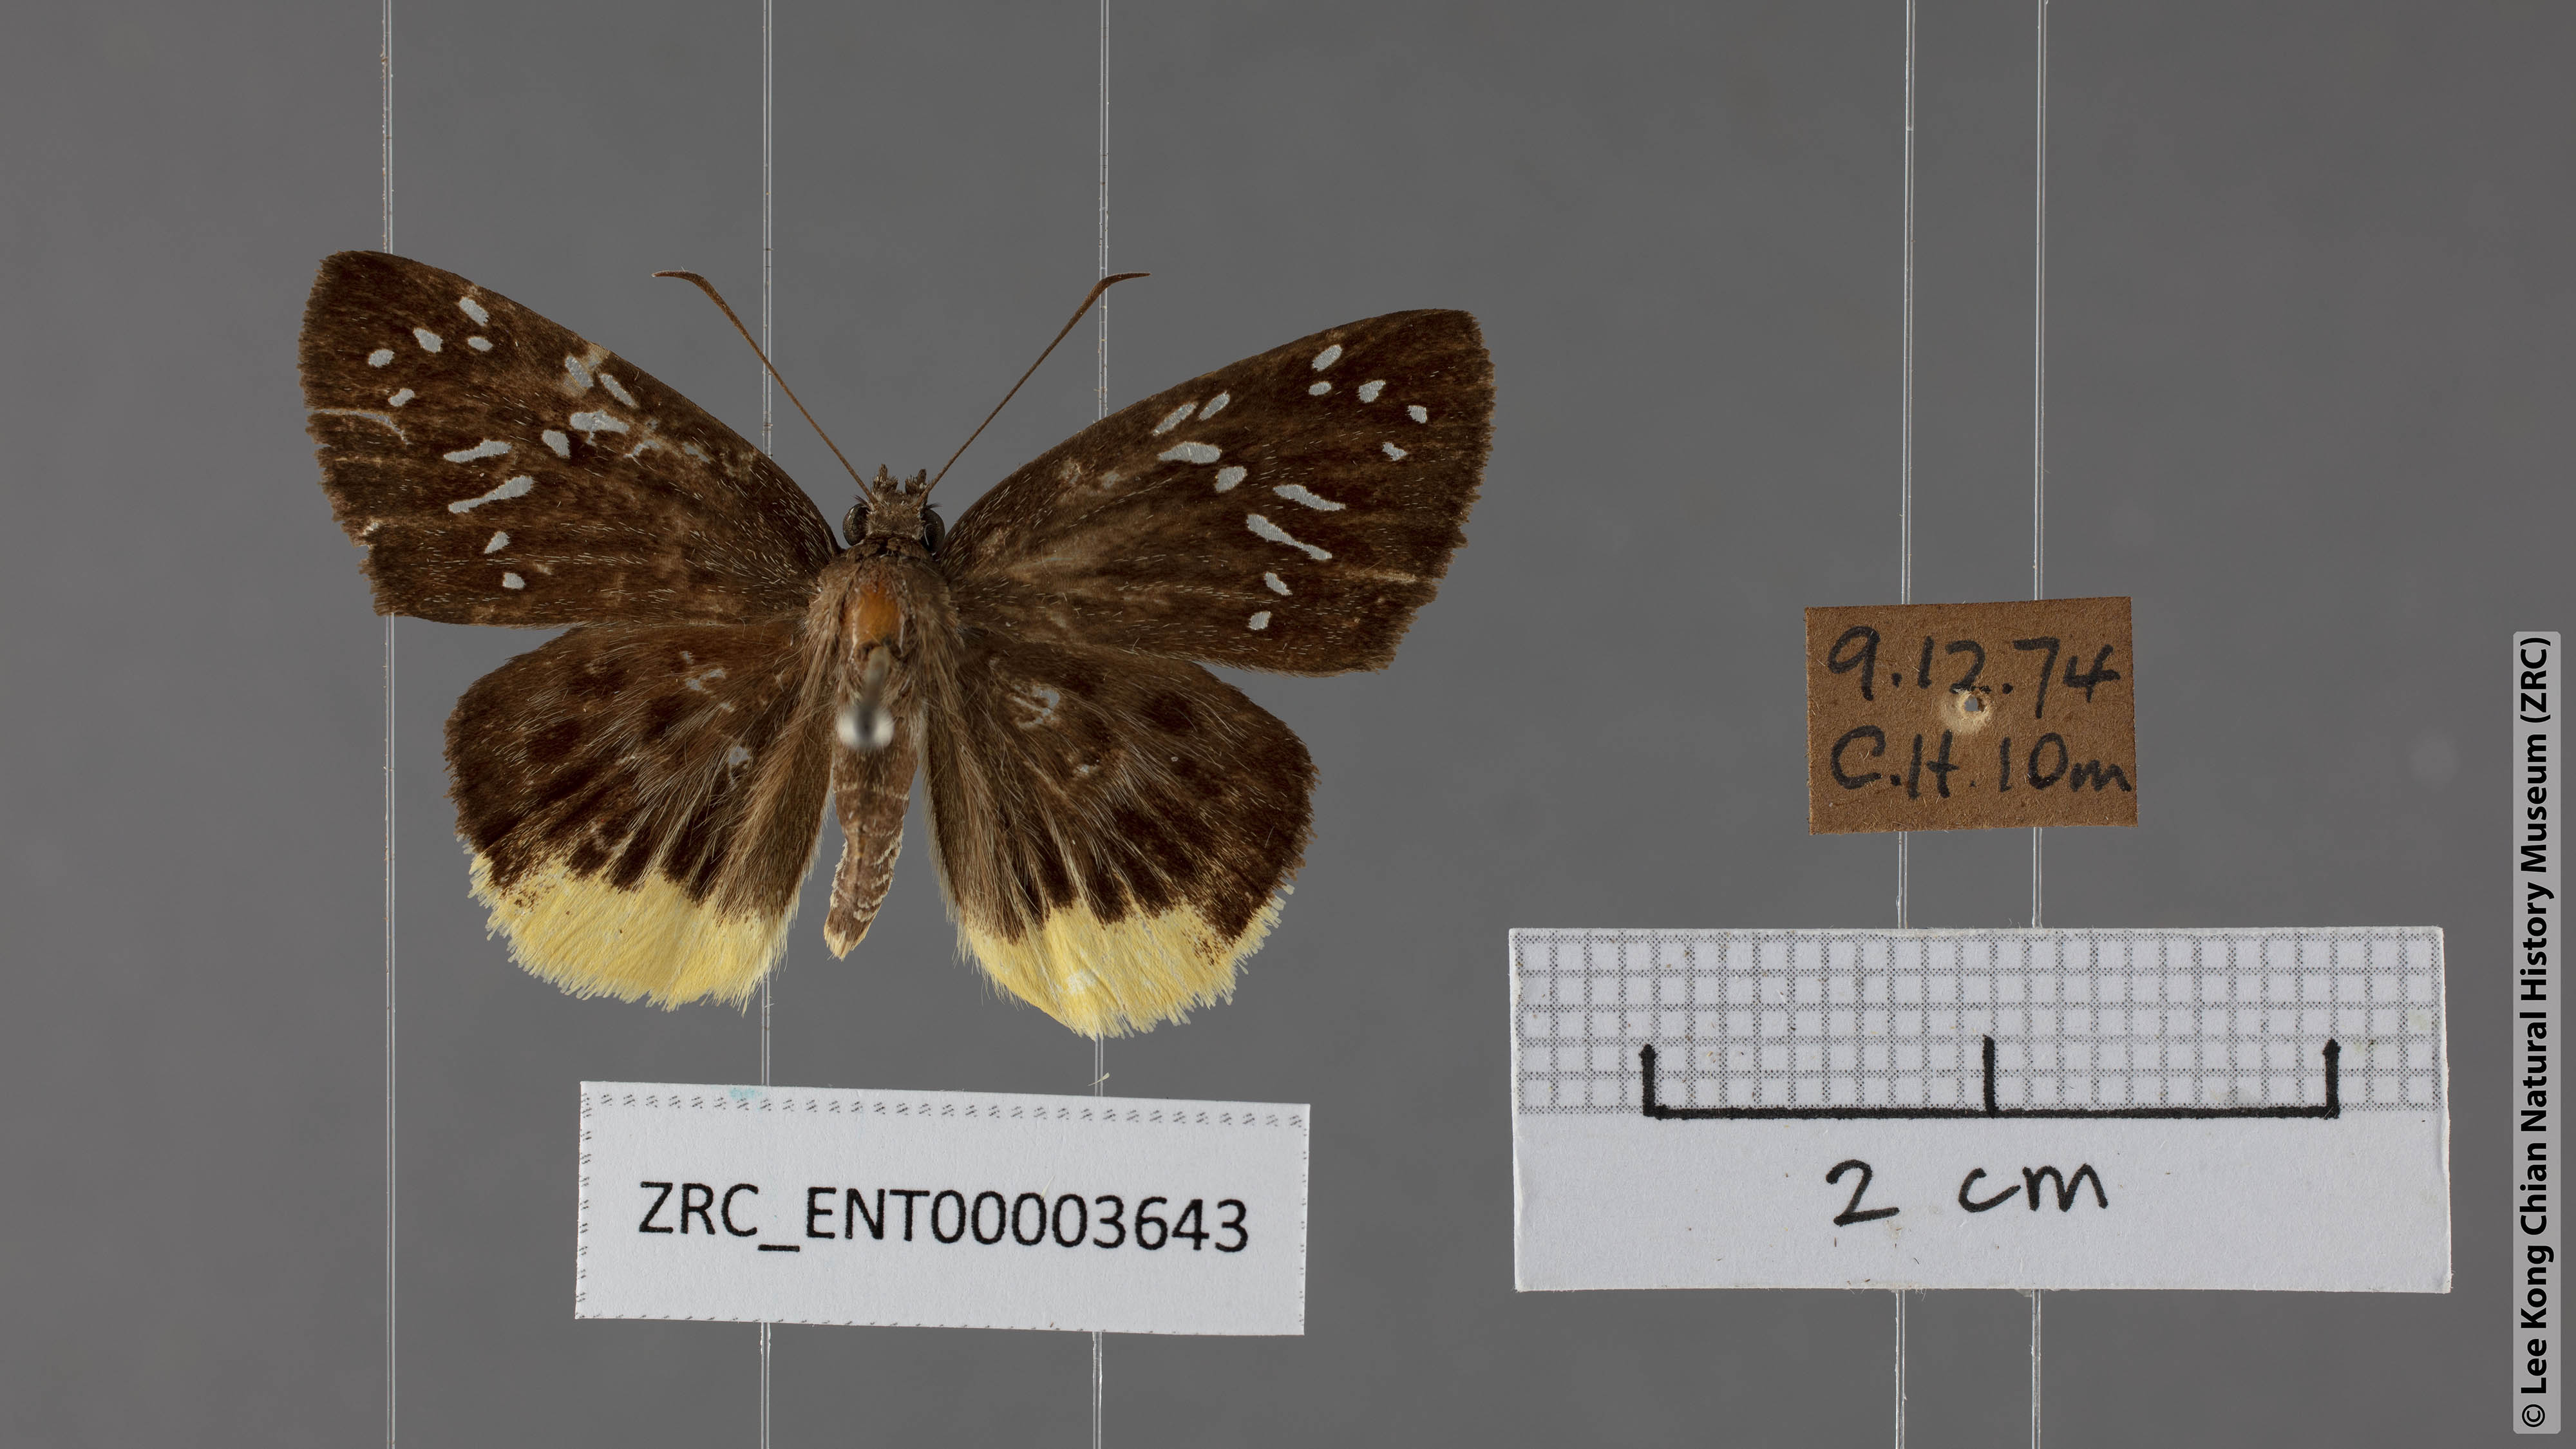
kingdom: Animalia
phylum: Arthropoda
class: Insecta
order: Lepidoptera
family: Hesperiidae
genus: Mooreana
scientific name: Mooreana trichoneura
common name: Yellow flat
